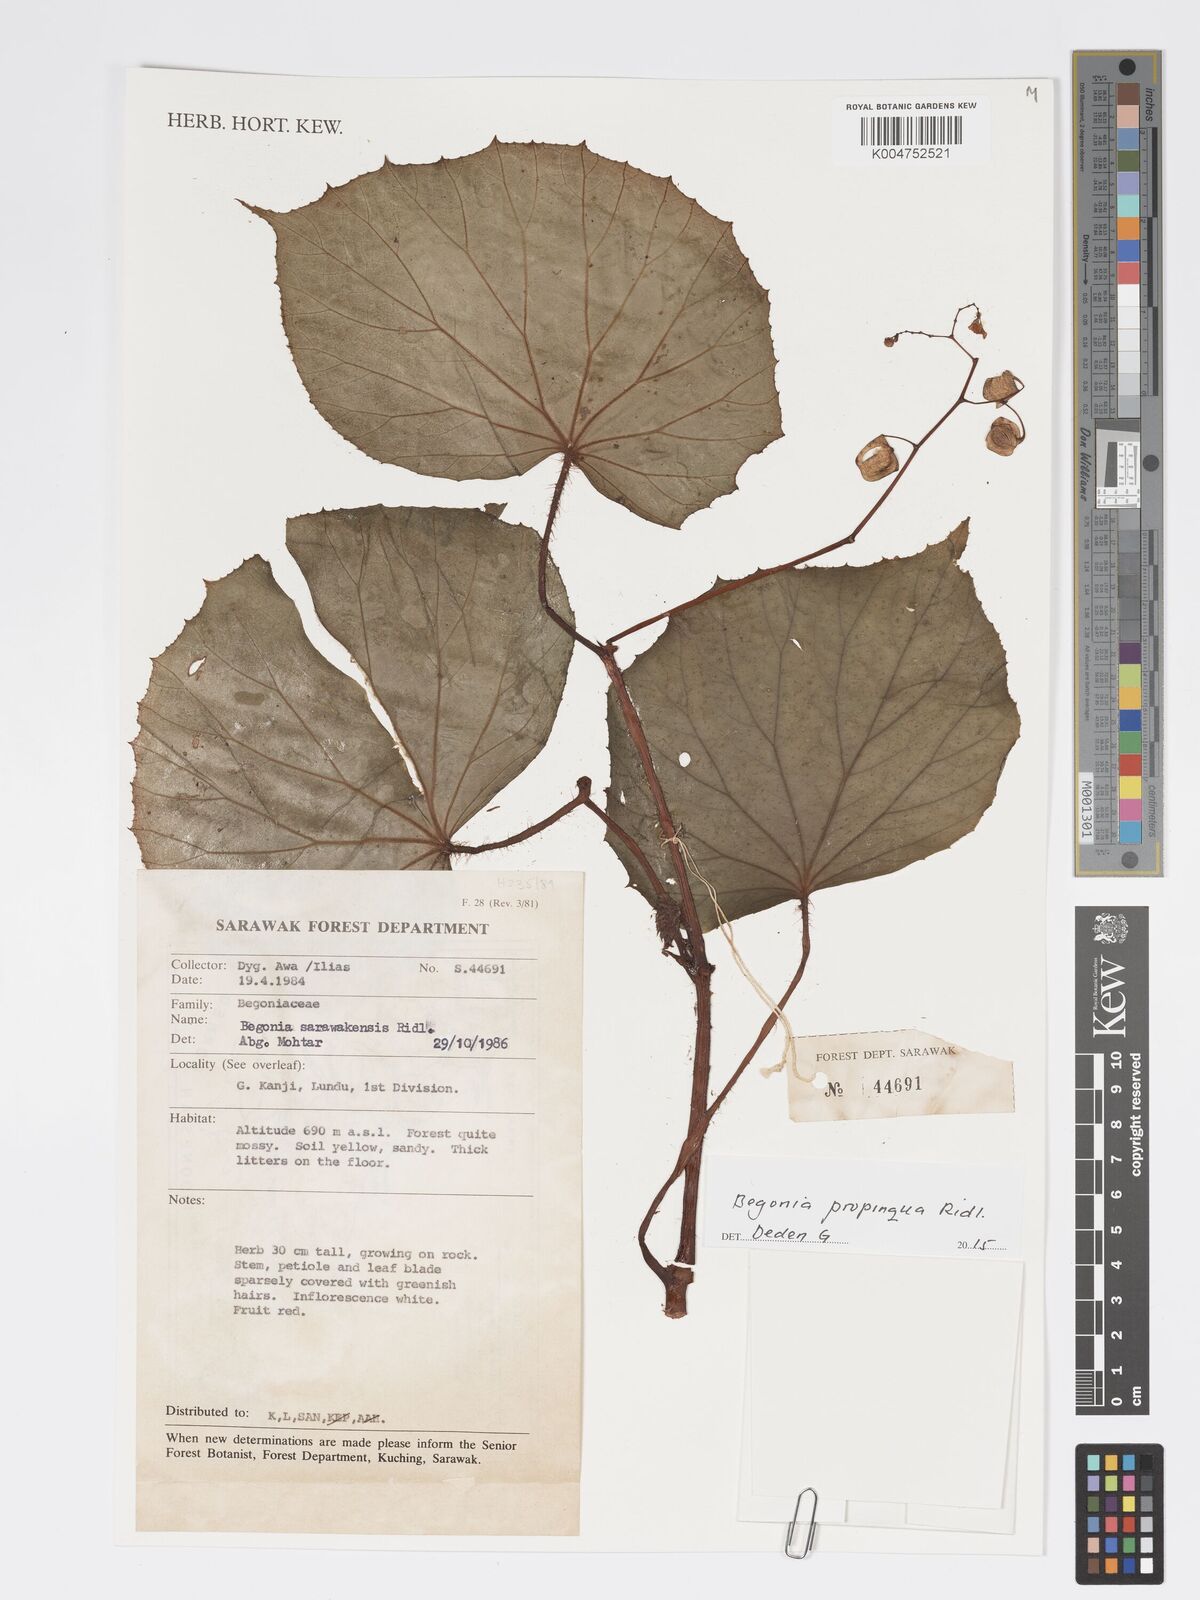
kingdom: Plantae
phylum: Tracheophyta
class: Magnoliopsida
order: Cucurbitales
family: Begoniaceae
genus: Begonia
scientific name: Begonia propinqua
